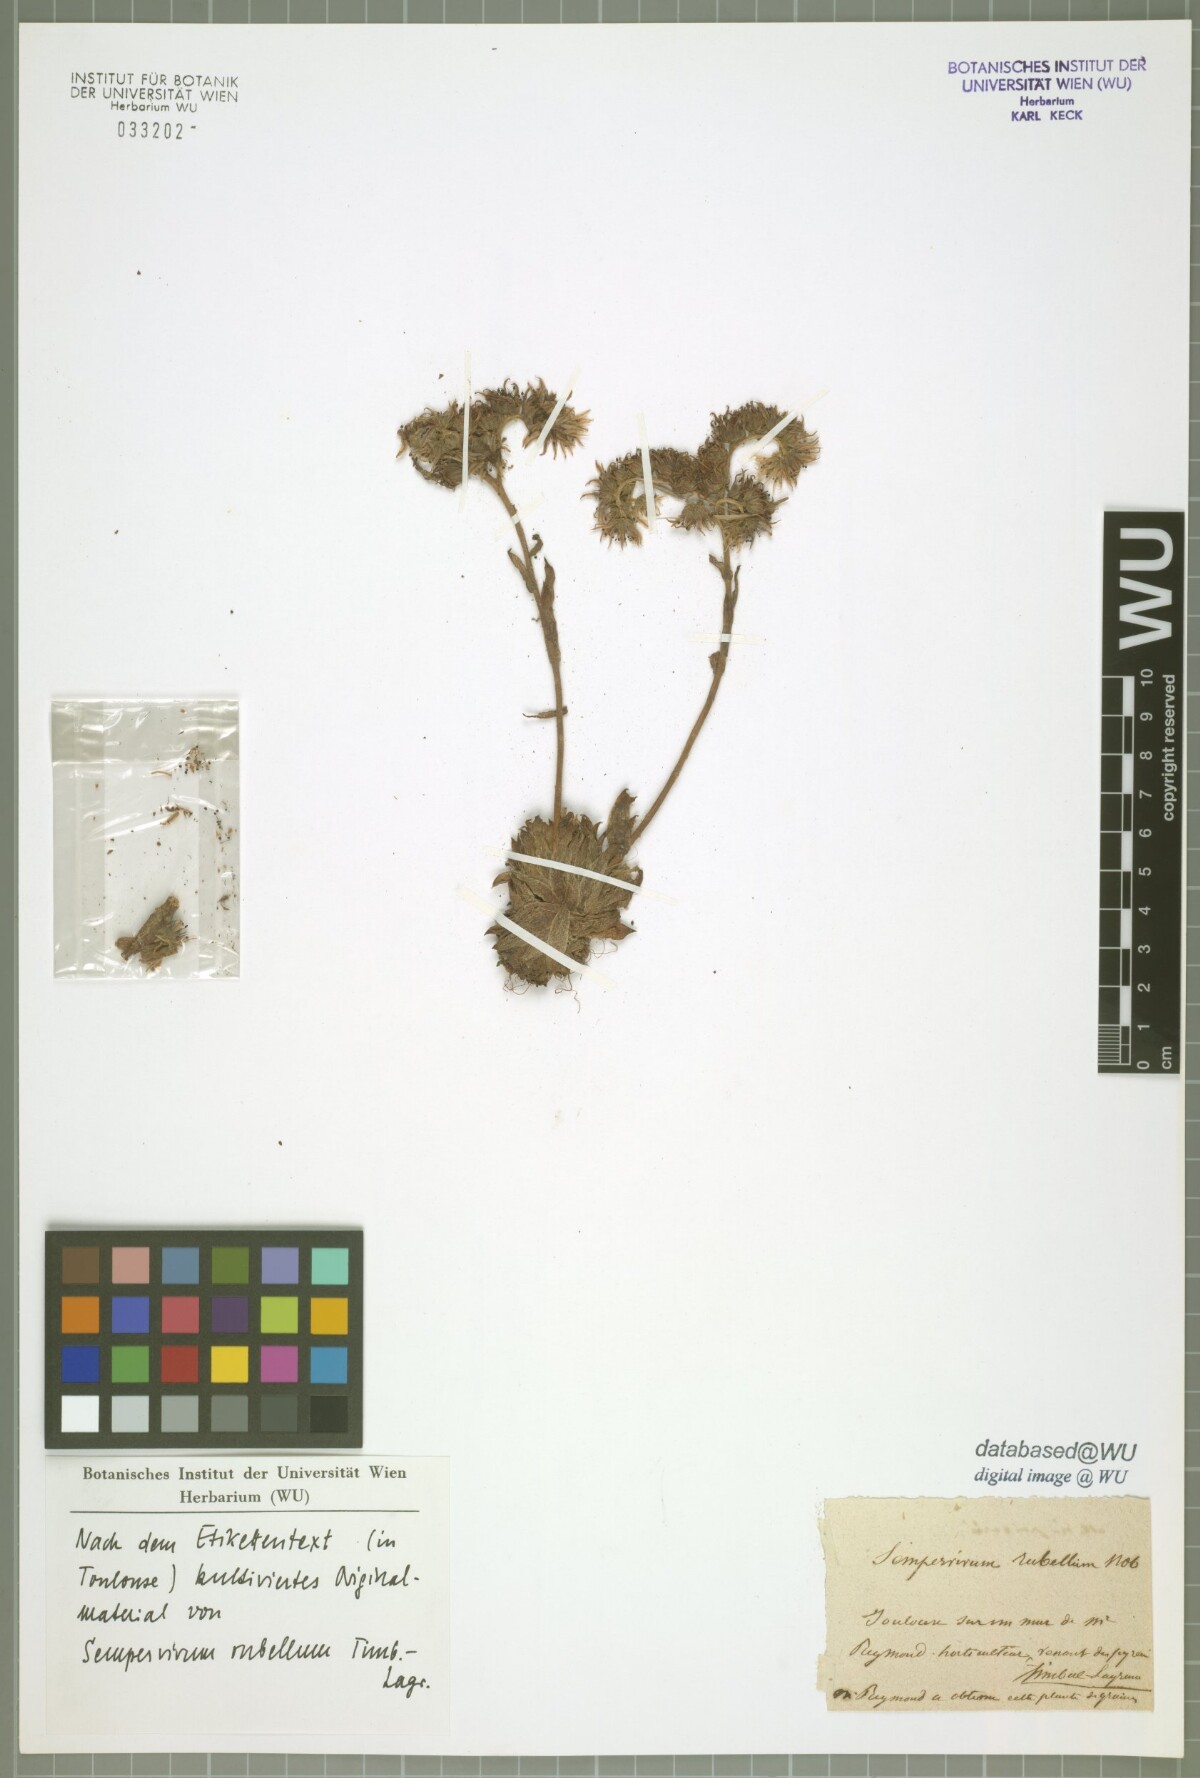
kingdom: Plantae
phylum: Tracheophyta
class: Magnoliopsida
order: Saxifragales
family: Crassulaceae
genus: Sempervivum
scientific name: Sempervivum alatum
